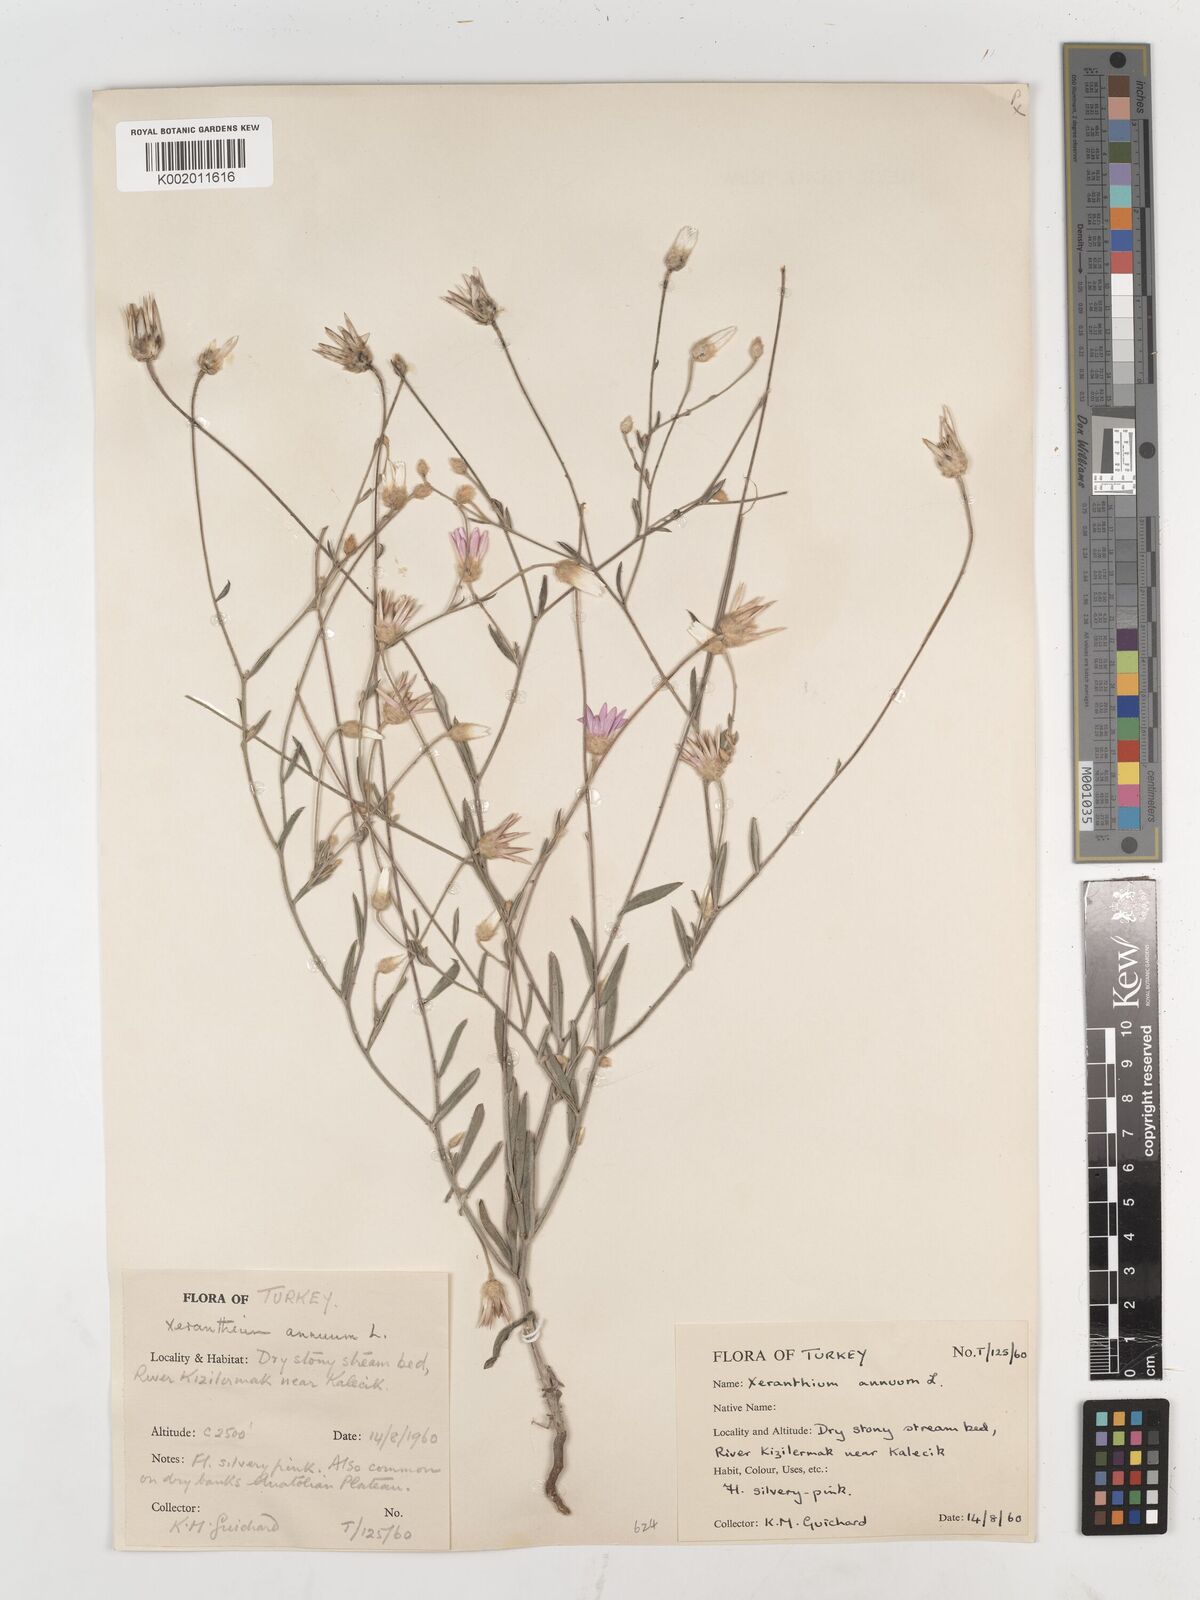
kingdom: Plantae
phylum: Tracheophyta
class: Magnoliopsida
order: Asterales
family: Asteraceae
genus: Xeranthemum
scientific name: Xeranthemum annuum
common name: Immortelle
